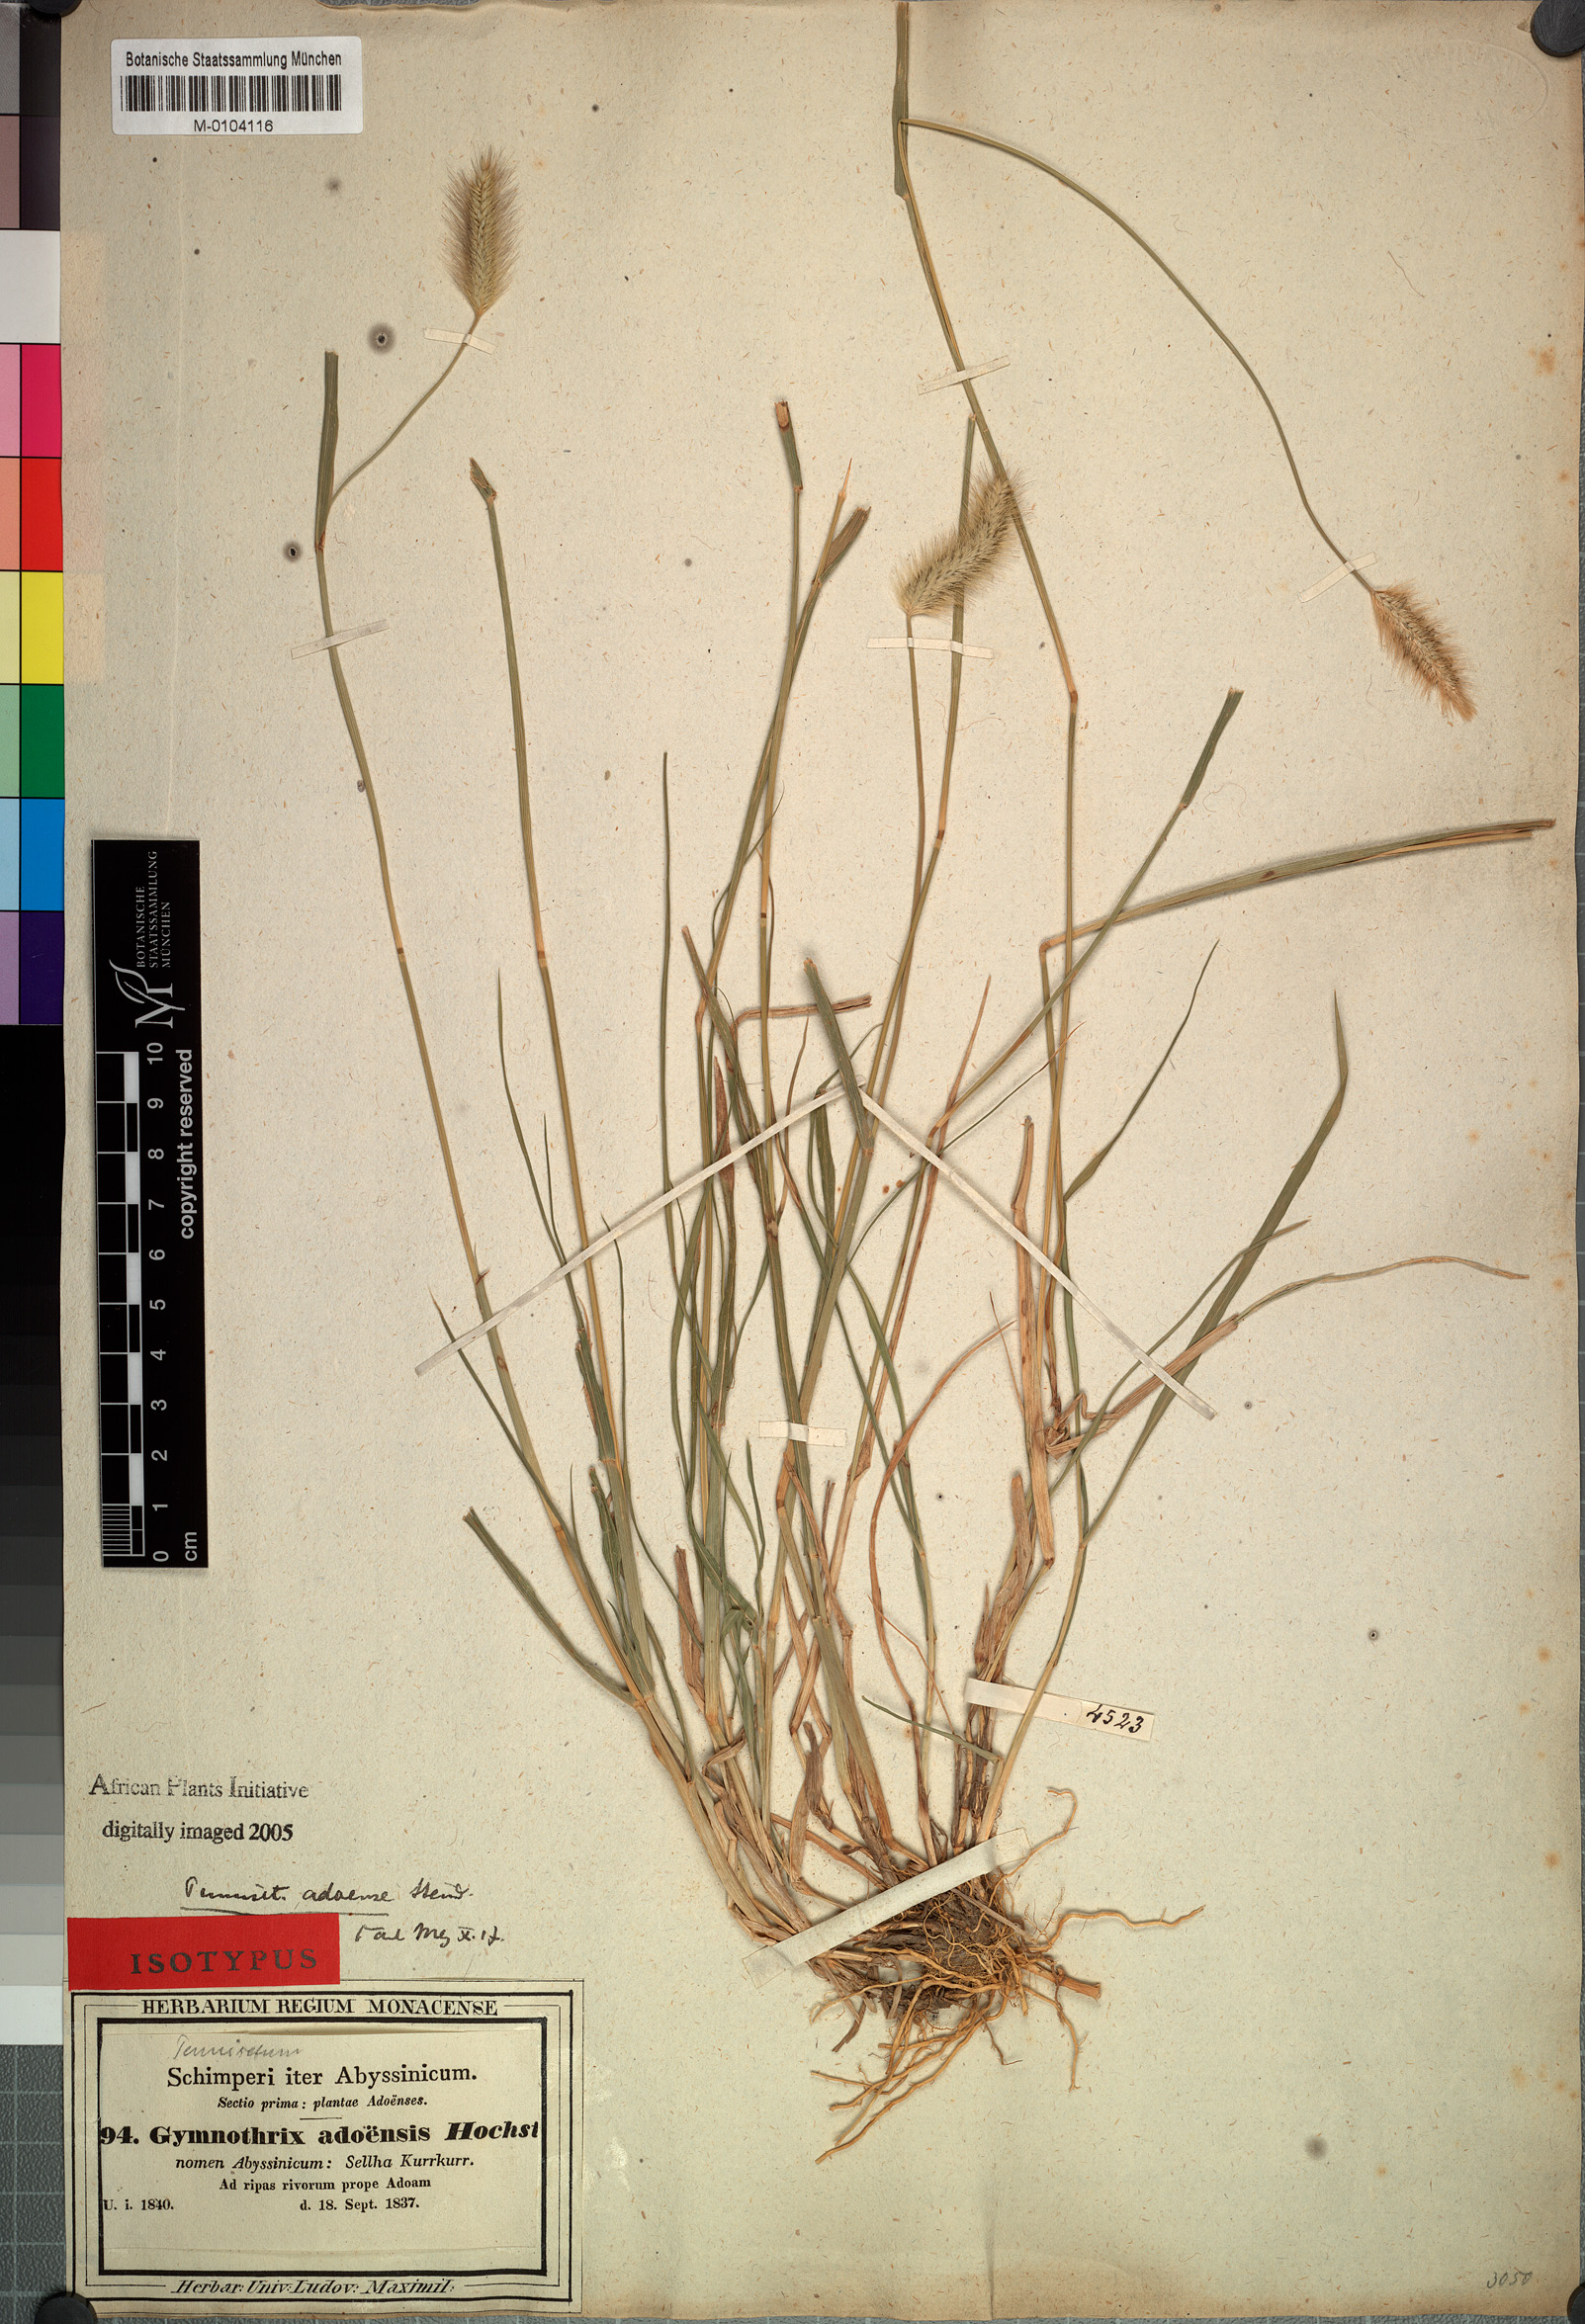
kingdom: Plantae
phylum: Tracheophyta
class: Liliopsida
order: Poales
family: Poaceae
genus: Cenchrus
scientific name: Cenchrus geniculatus
